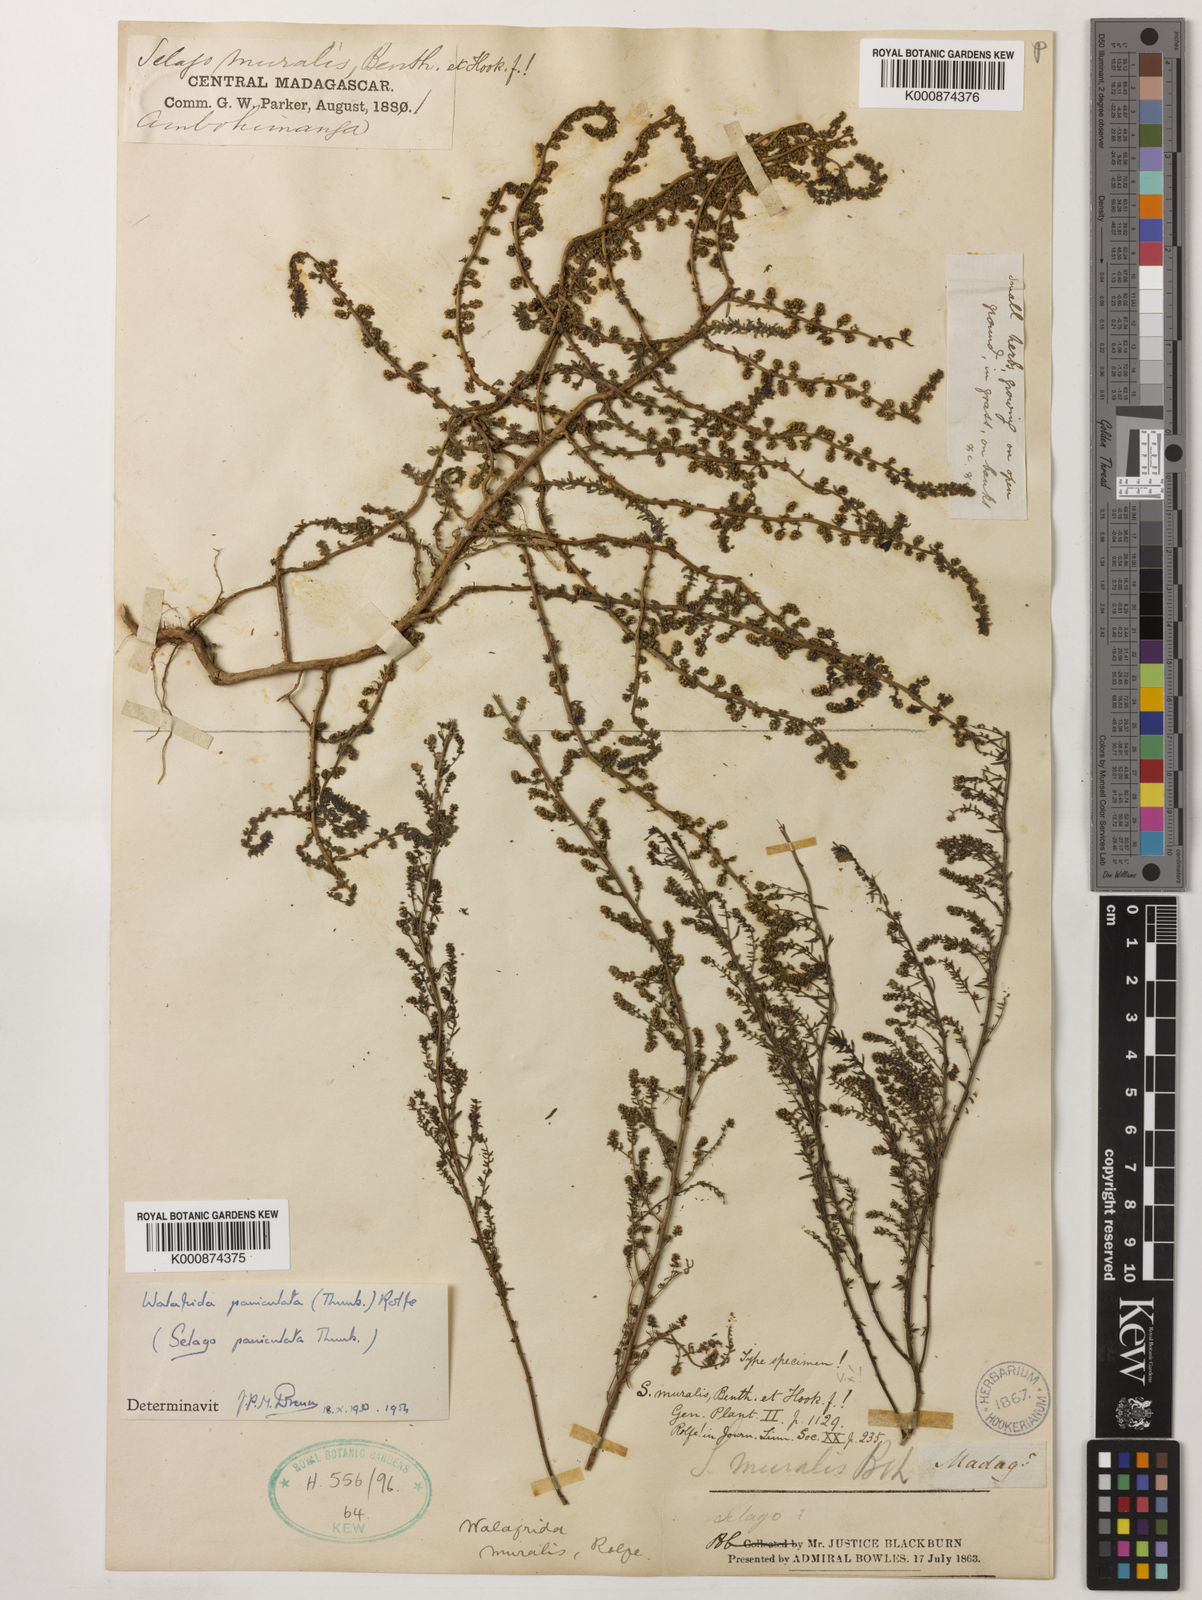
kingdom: Plantae
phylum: Tracheophyta
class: Magnoliopsida
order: Lamiales
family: Scrophulariaceae
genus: Selago
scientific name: Selago muralis
